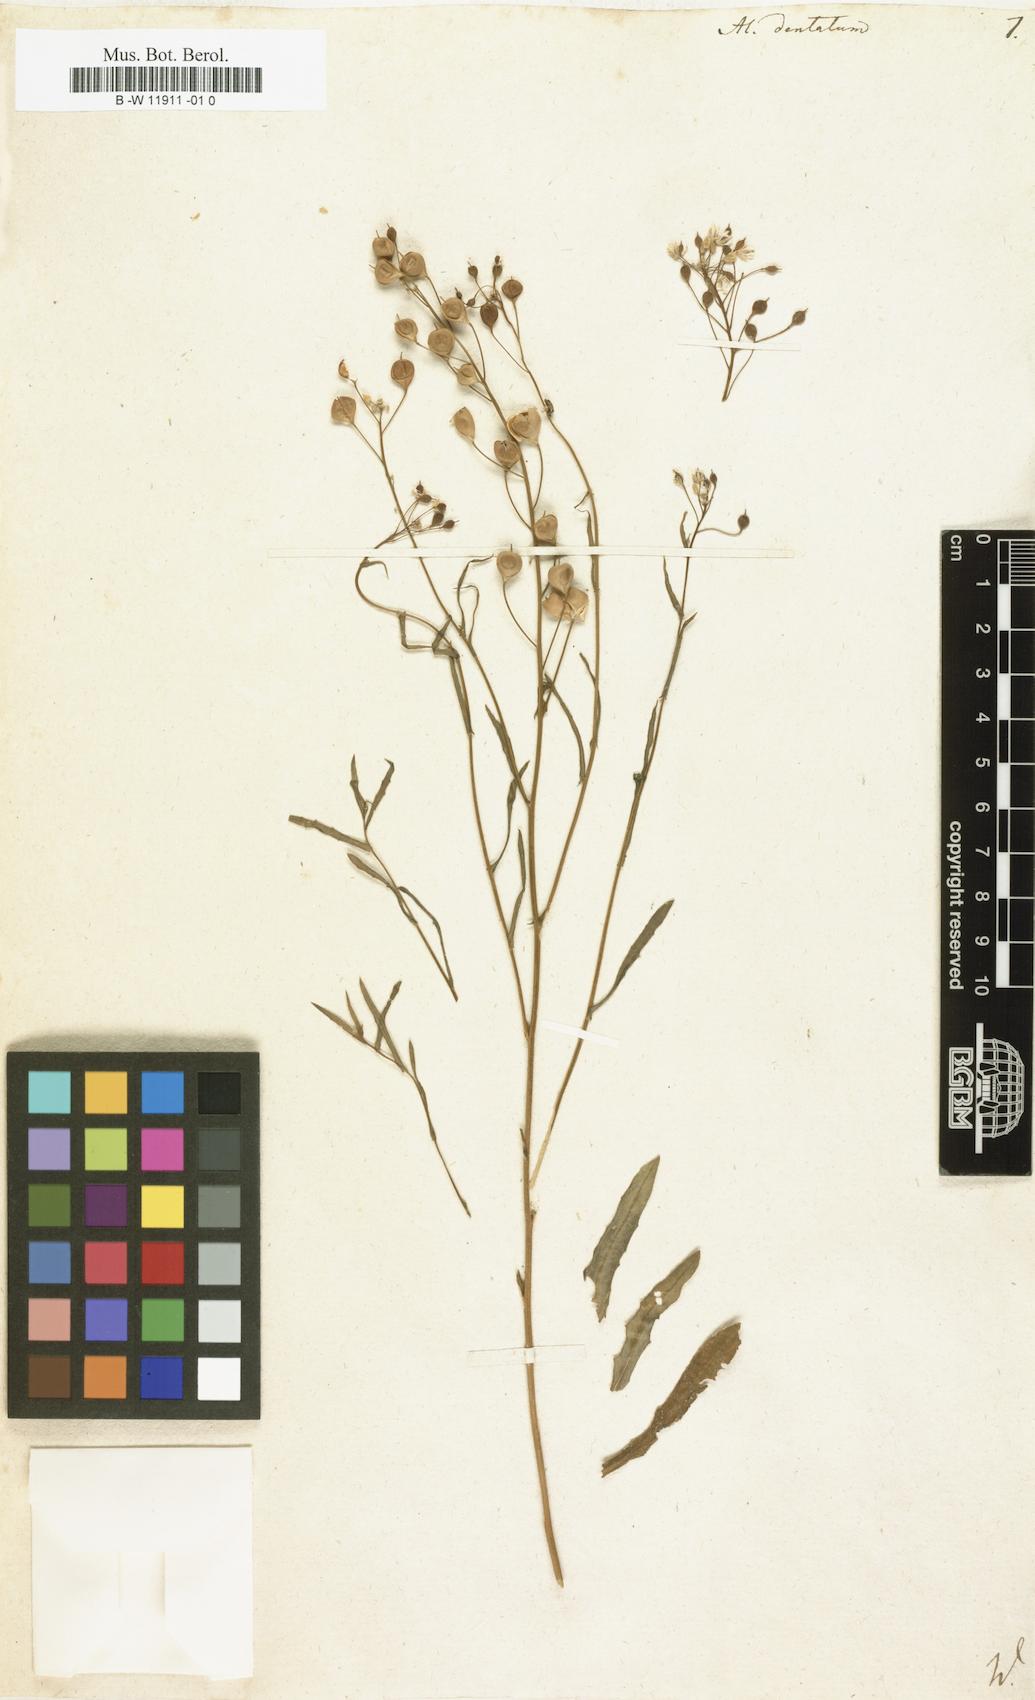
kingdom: Plantae
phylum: Tracheophyta
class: Magnoliopsida
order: Brassicales
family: Brassicaceae
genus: Camelina
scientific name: Camelina sativa
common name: Gold-of-pleasure
